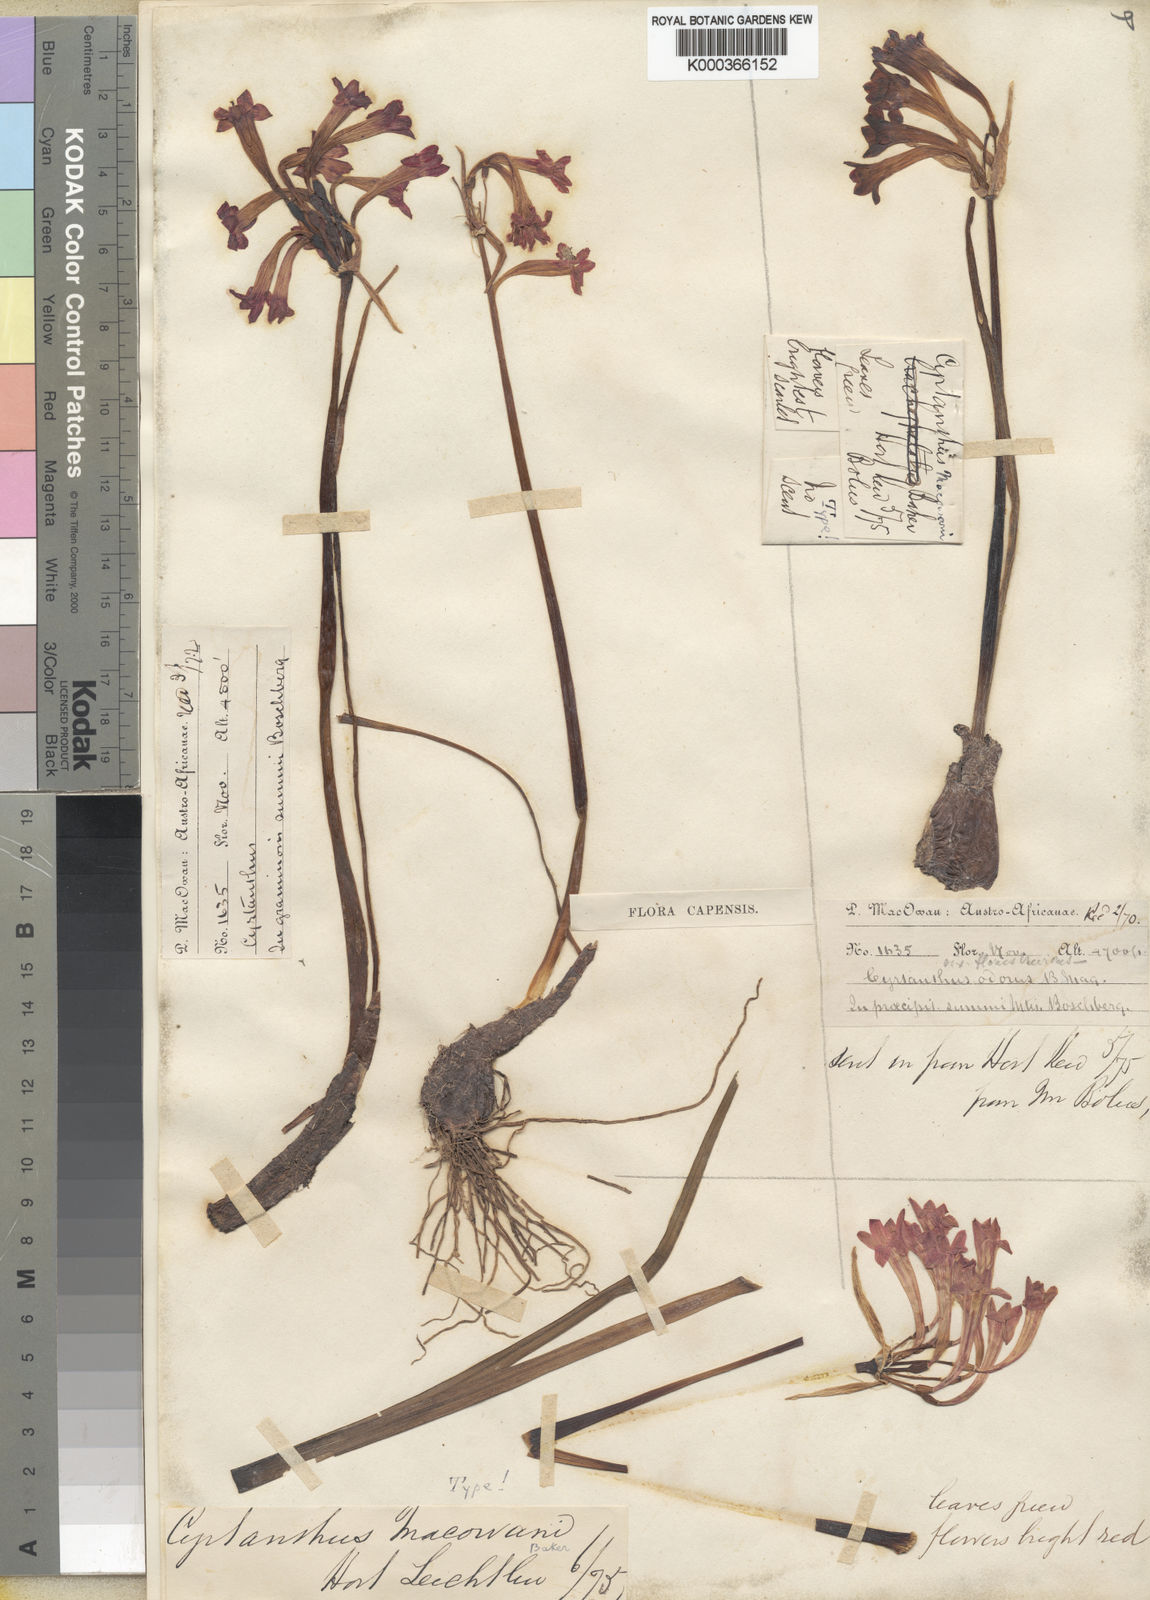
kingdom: Plantae
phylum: Tracheophyta
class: Liliopsida
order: Asparagales
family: Amaryllidaceae
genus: Cyrtanthus
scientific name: Cyrtanthus macowanii
